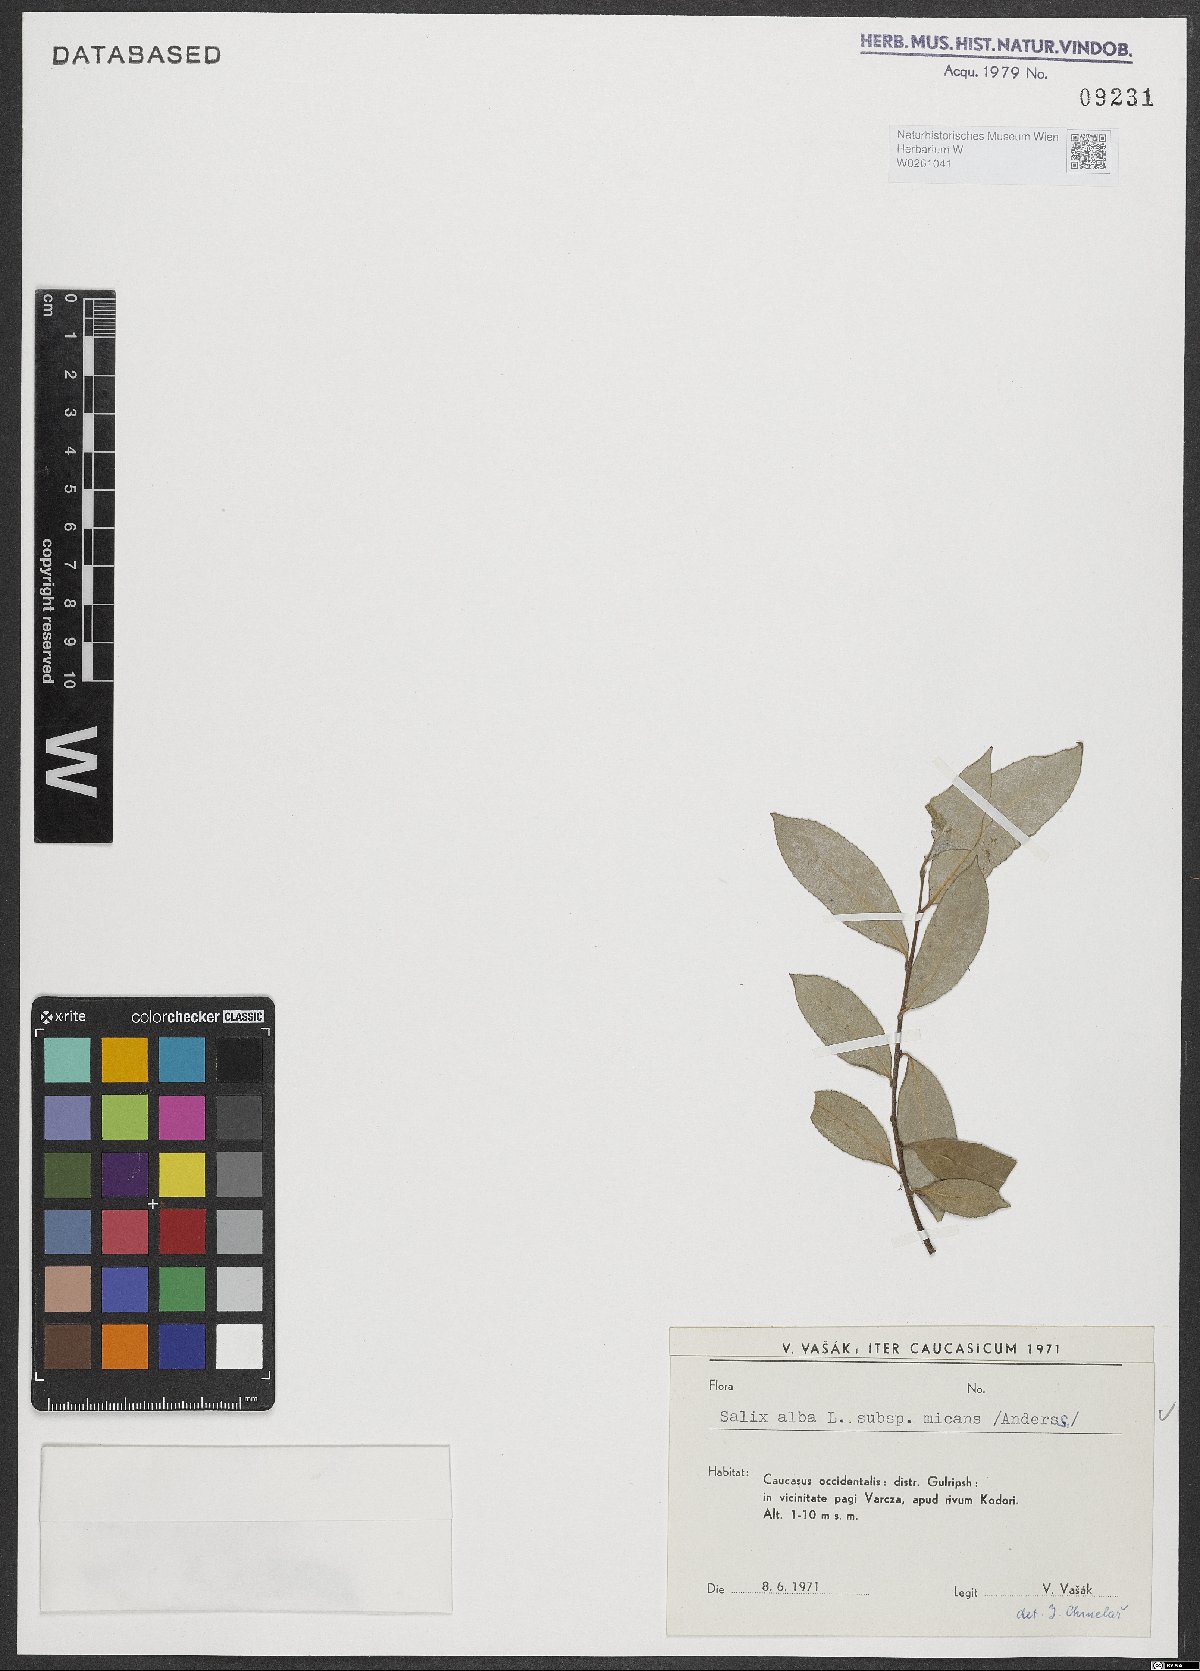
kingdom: Plantae
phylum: Tracheophyta
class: Magnoliopsida
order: Malpighiales
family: Salicaceae
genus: Salix
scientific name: Salix alba
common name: White willow
